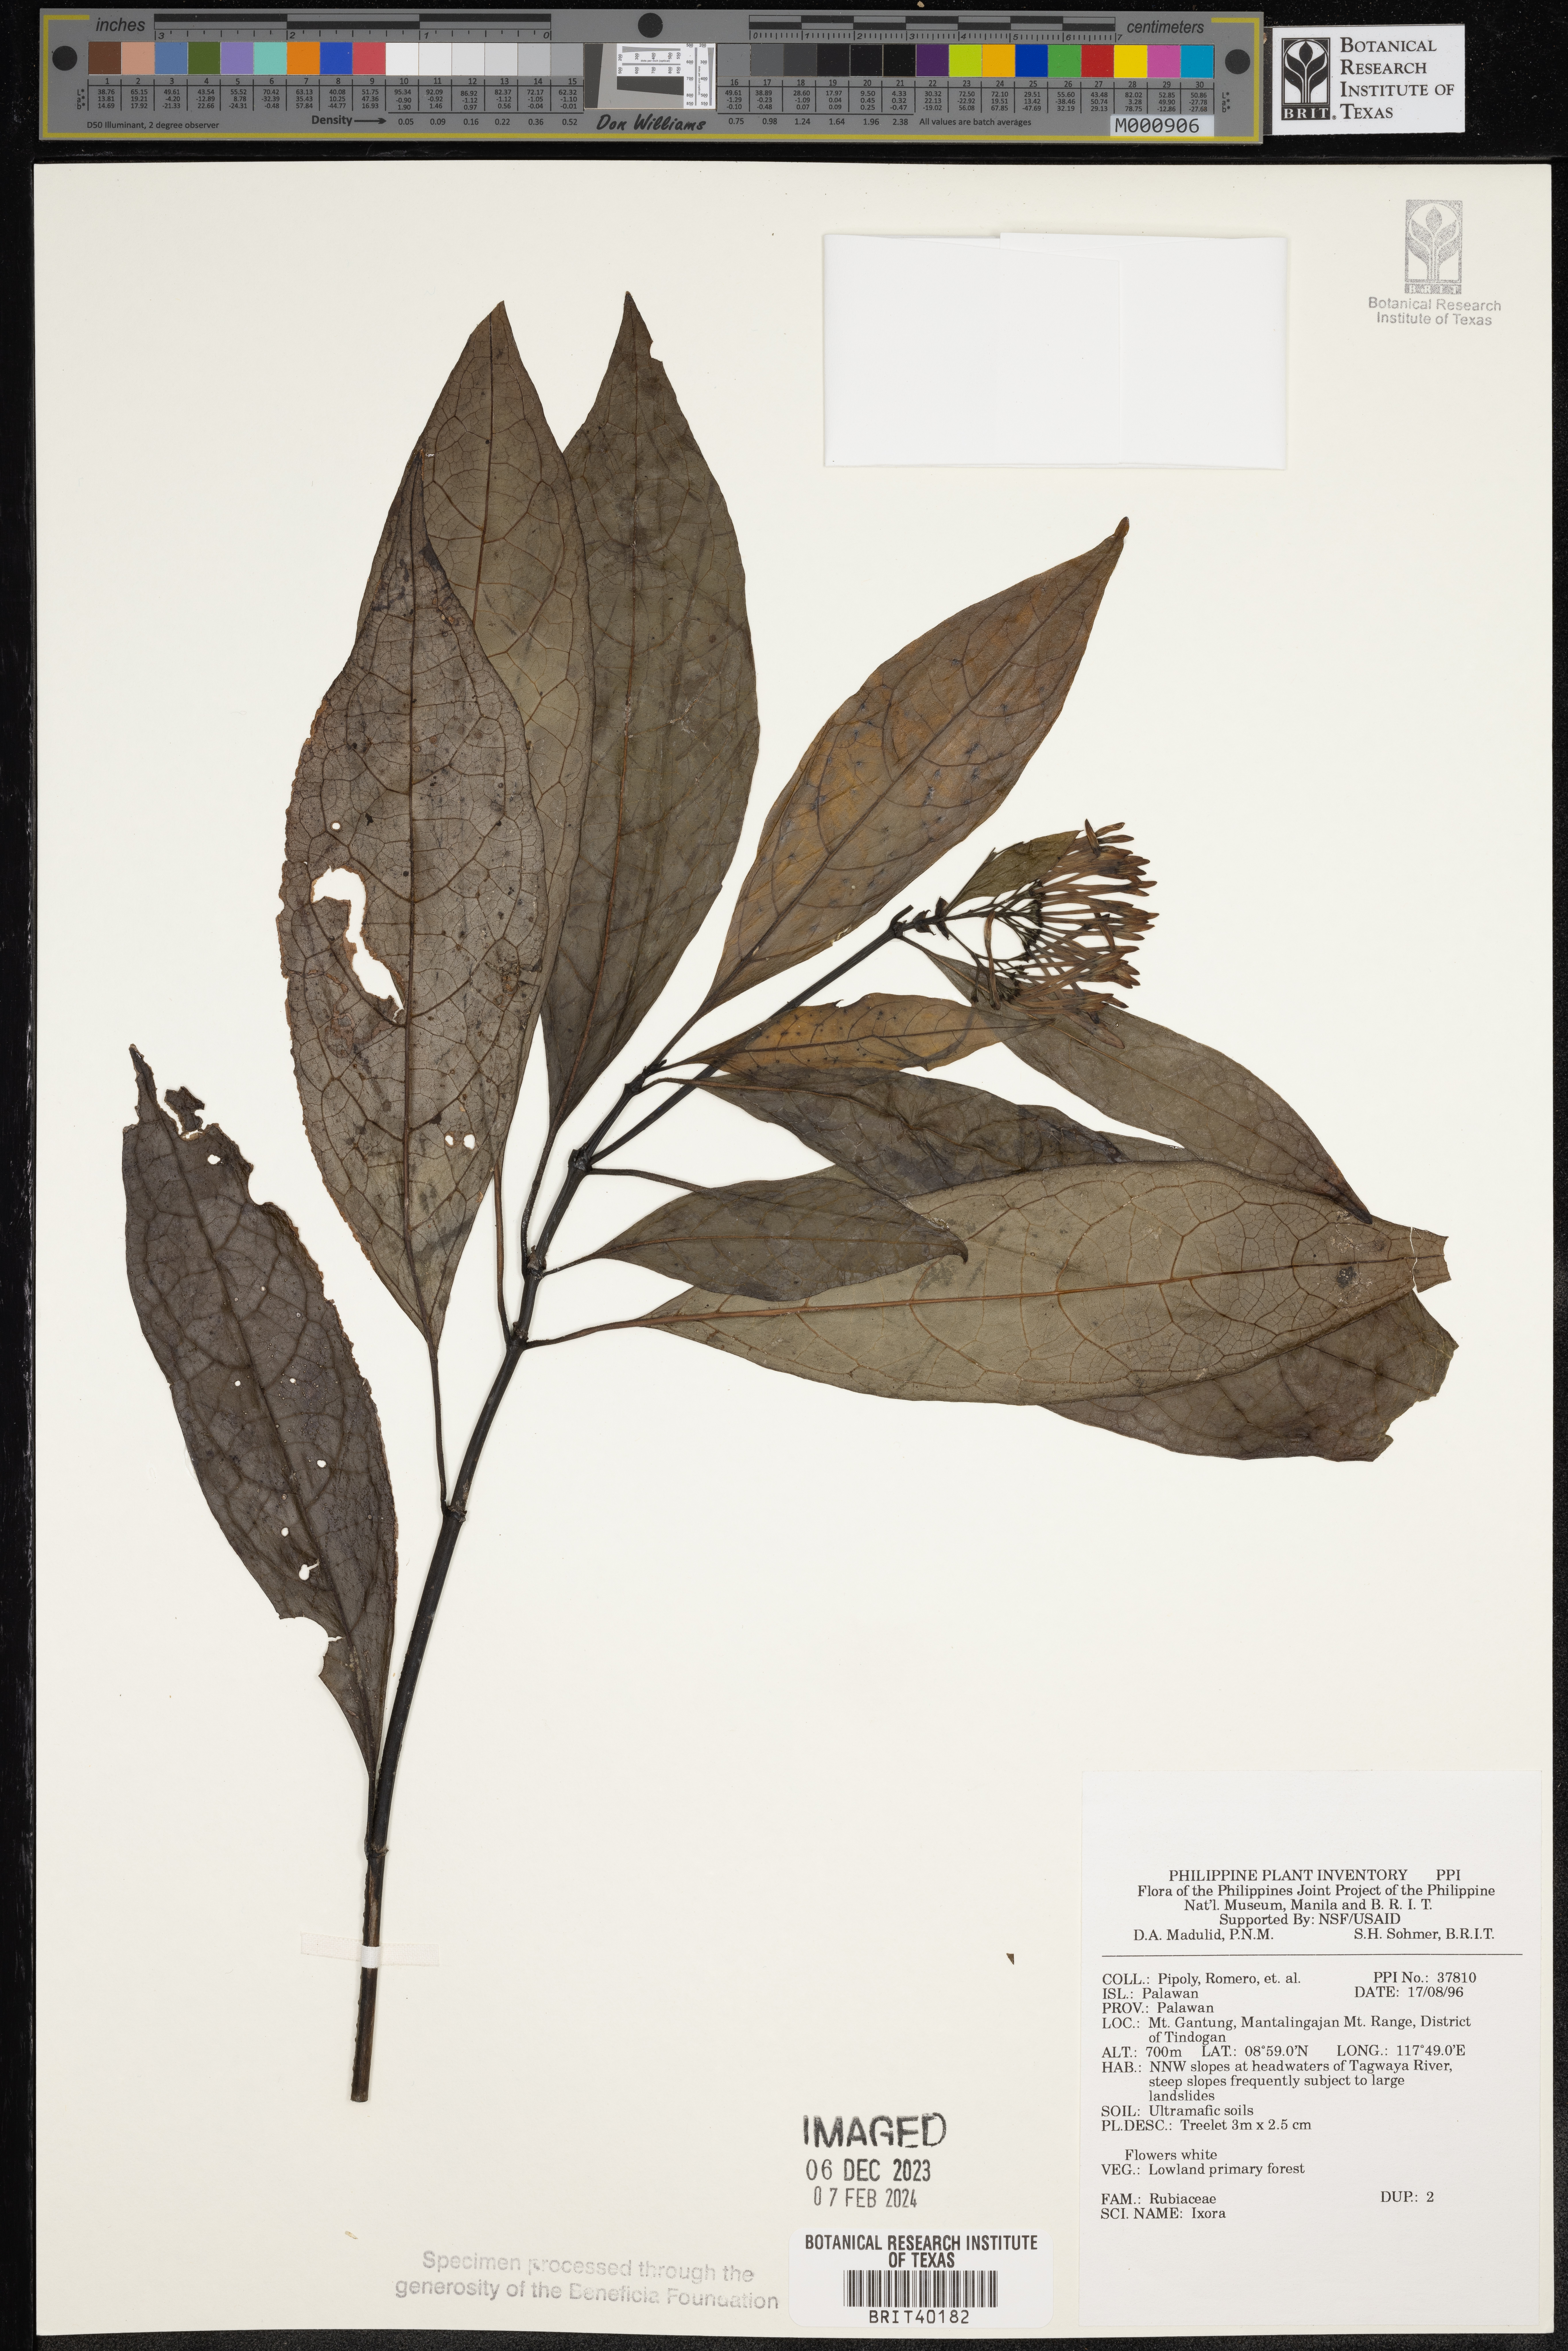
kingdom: Plantae
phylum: Tracheophyta
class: Magnoliopsida
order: Gentianales
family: Rubiaceae
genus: Ixora
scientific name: Ixora
